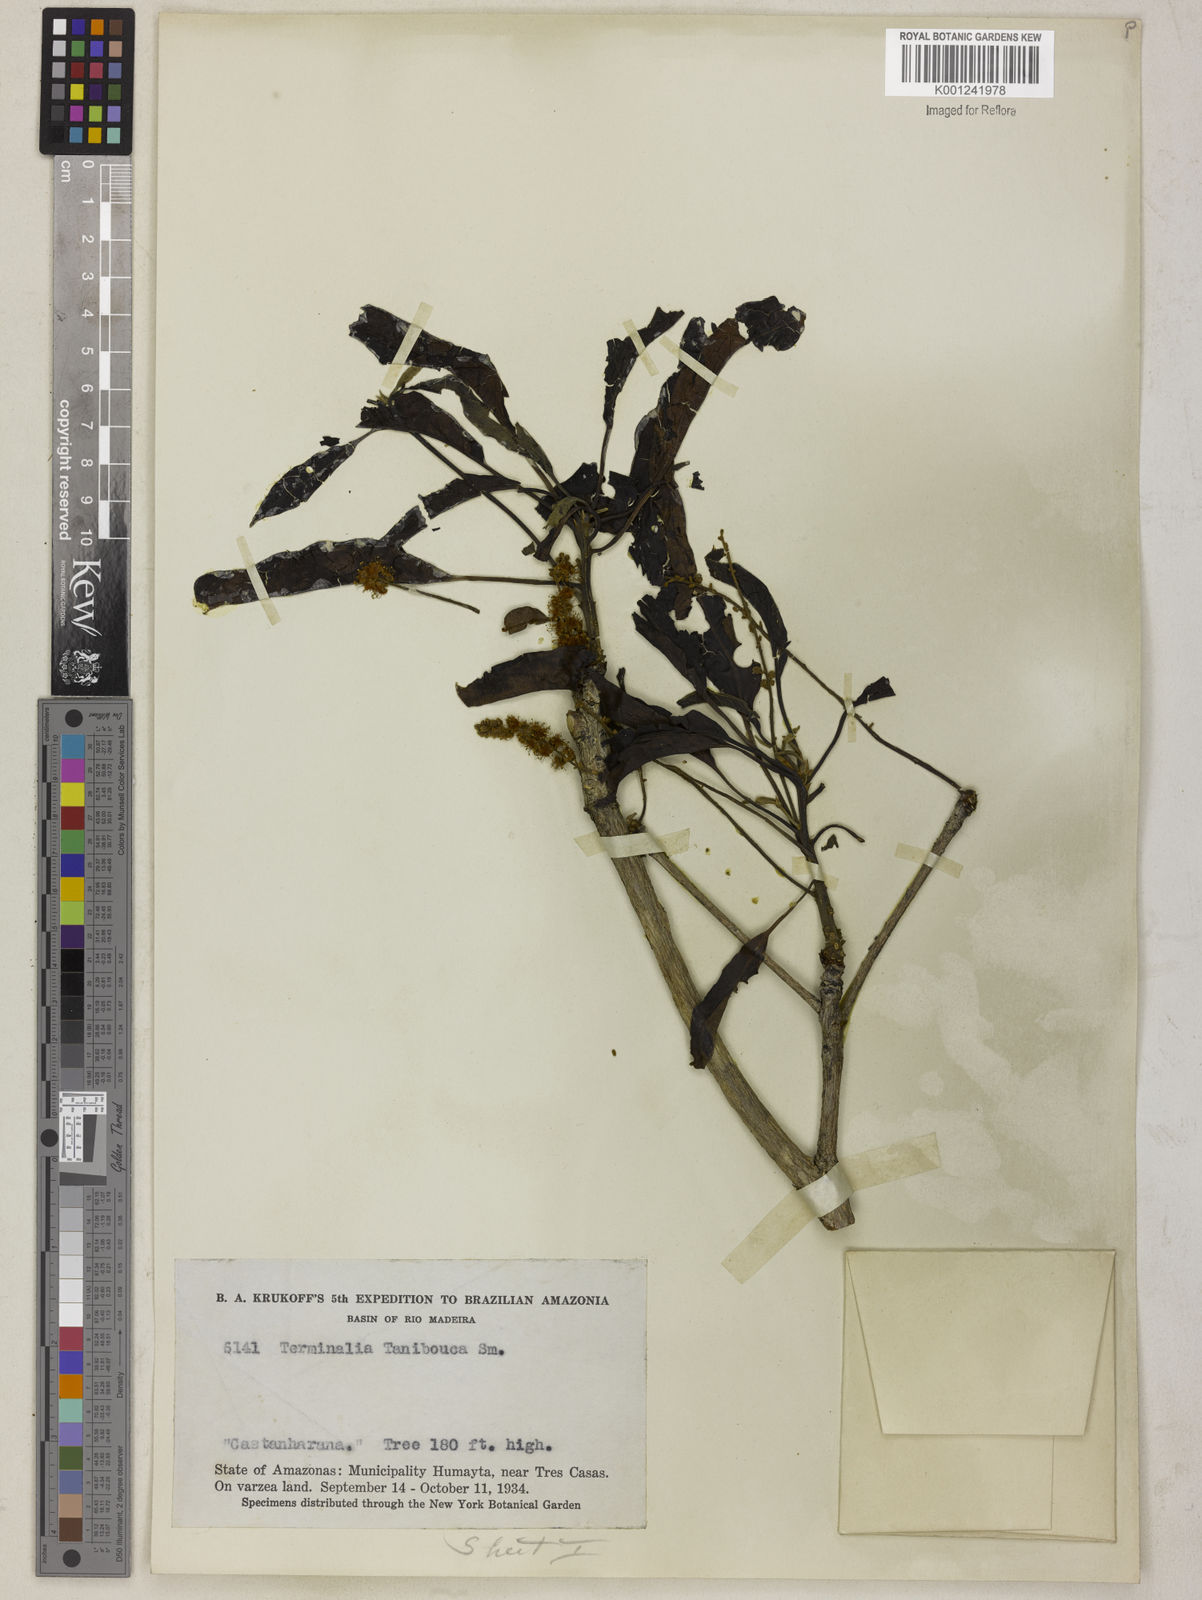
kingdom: Plantae
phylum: Tracheophyta
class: Magnoliopsida
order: Myrtales
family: Combretaceae
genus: Terminalia
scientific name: Terminalia dichotoma
